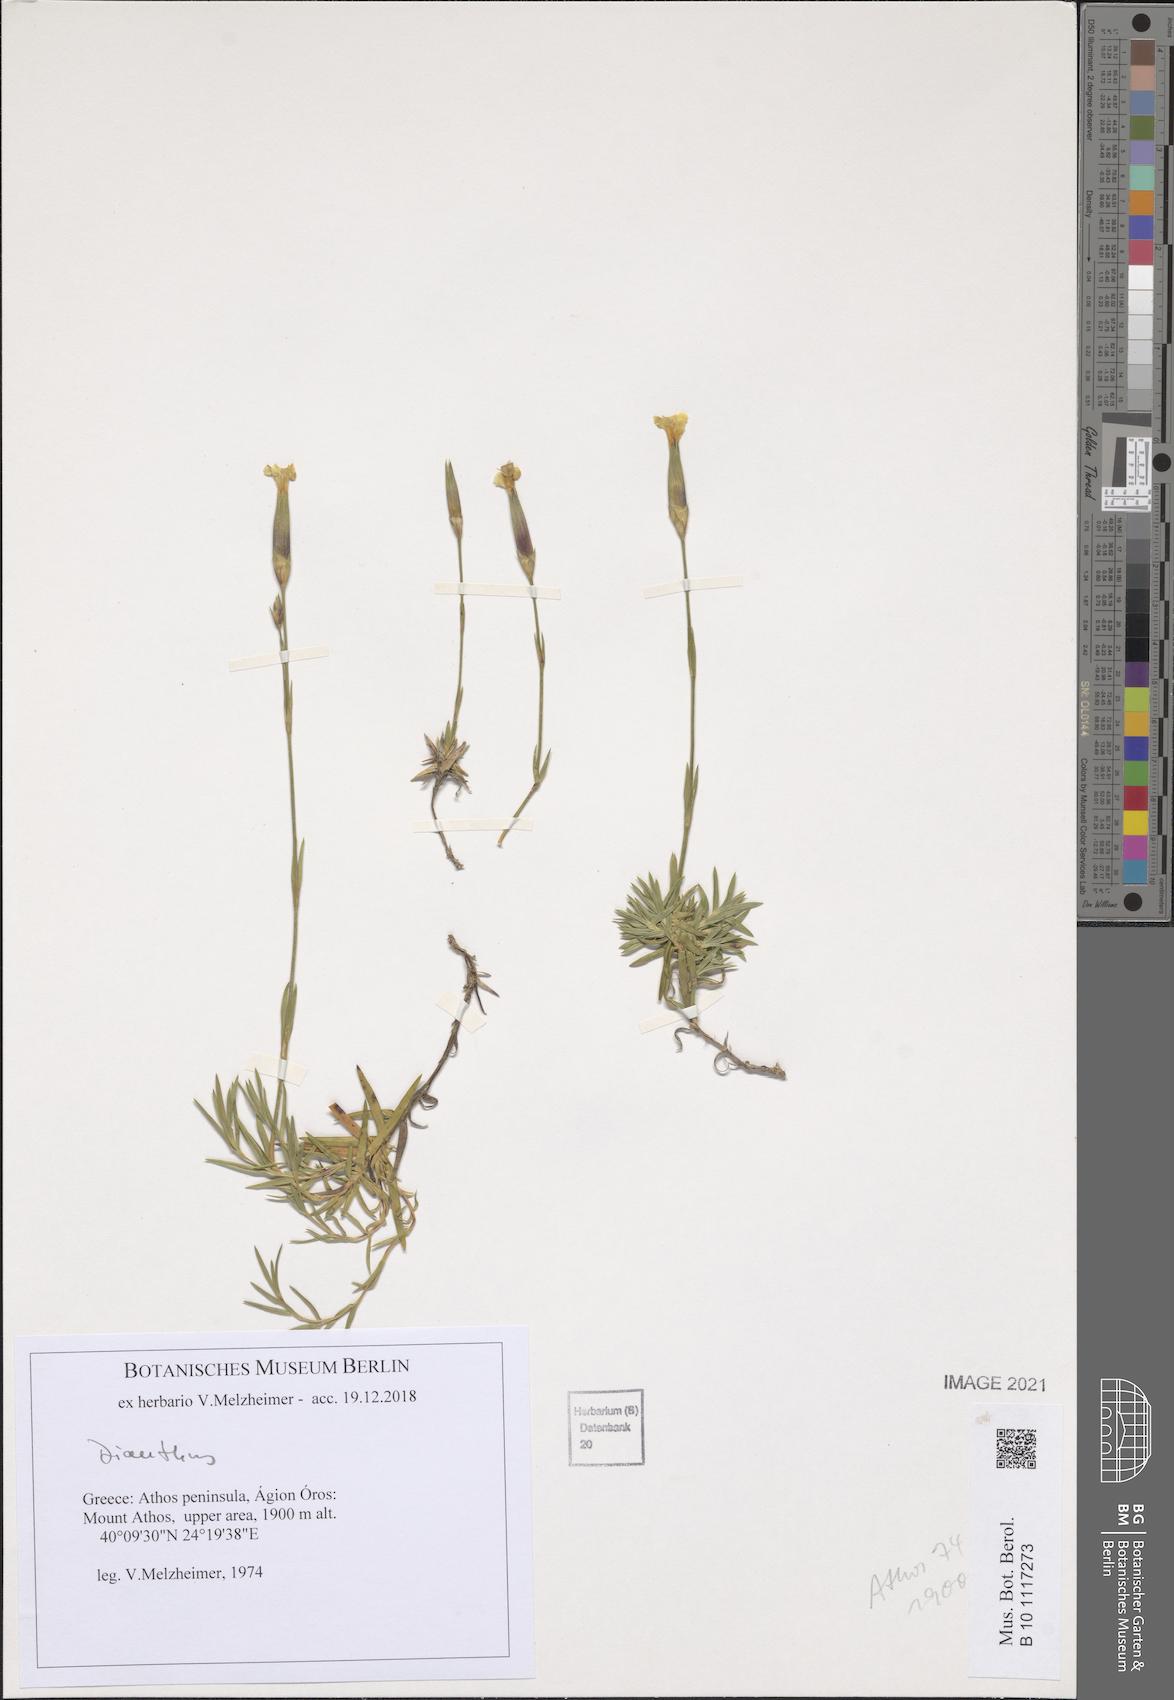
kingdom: Plantae
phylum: Tracheophyta
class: Magnoliopsida
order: Caryophyllales
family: Caryophyllaceae
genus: Dianthus
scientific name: Dianthus
